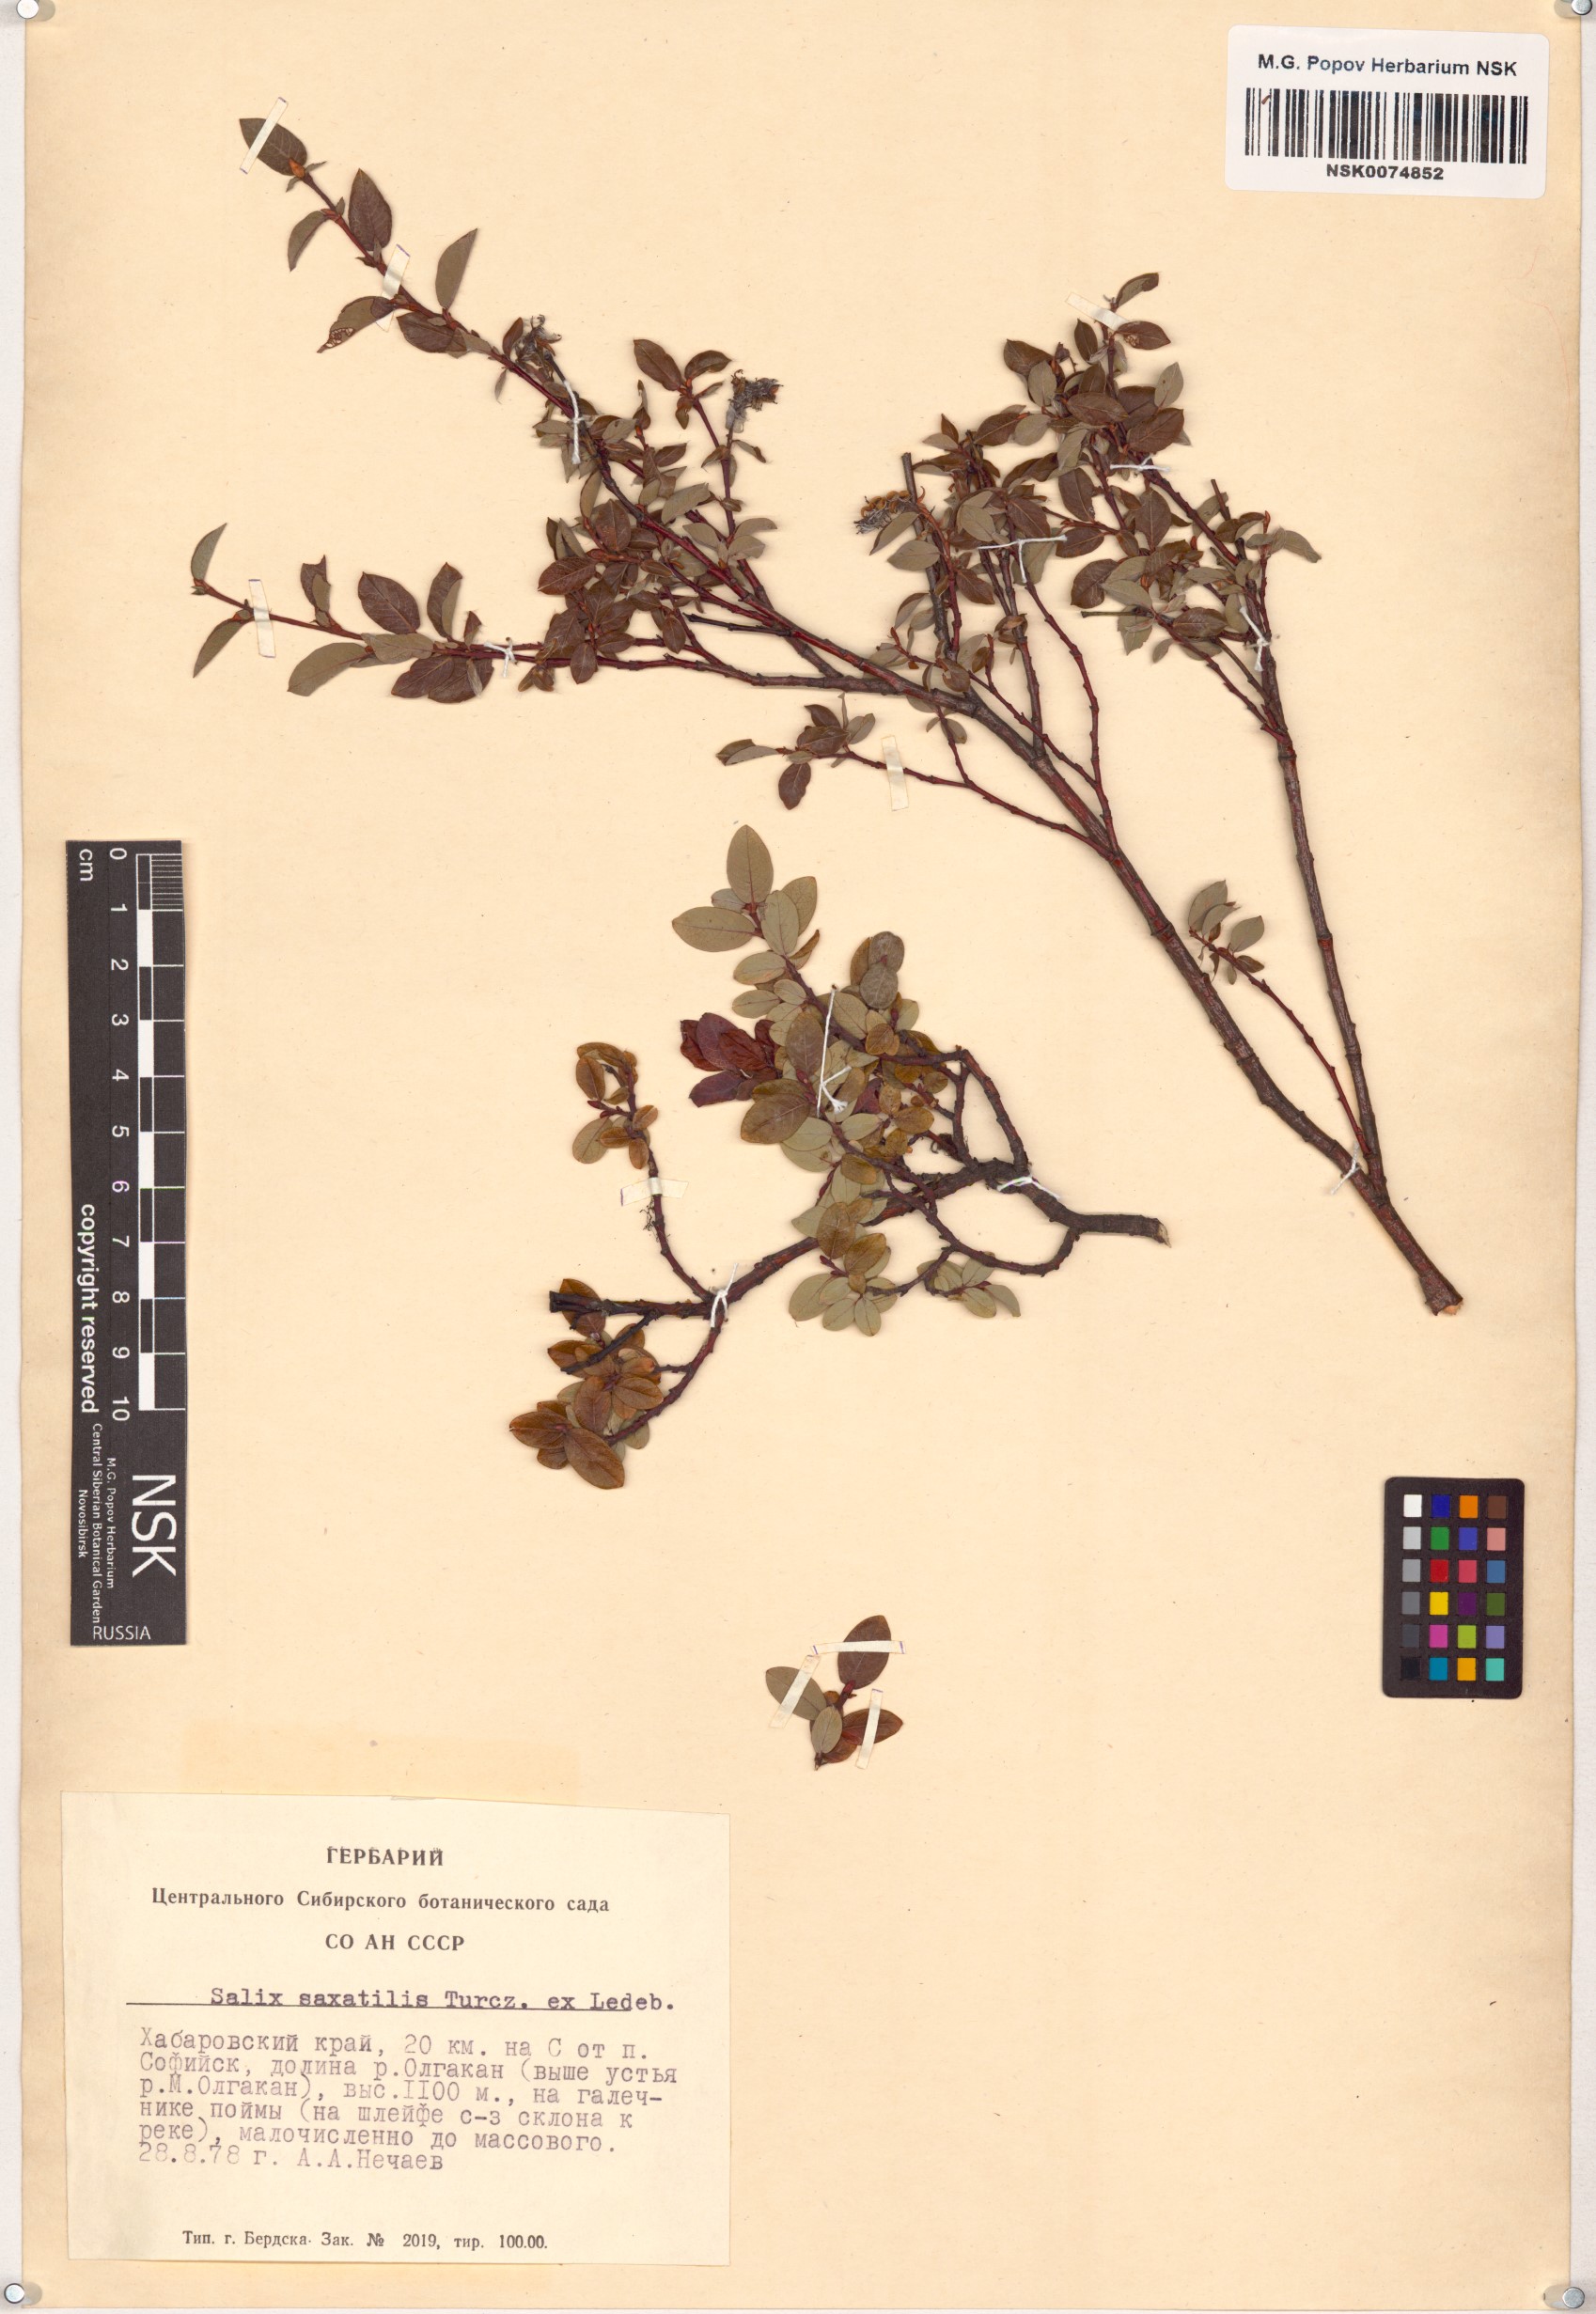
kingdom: Plantae
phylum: Tracheophyta
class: Magnoliopsida
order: Malpighiales
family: Salicaceae
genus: Salix
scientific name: Salix saxatilis
